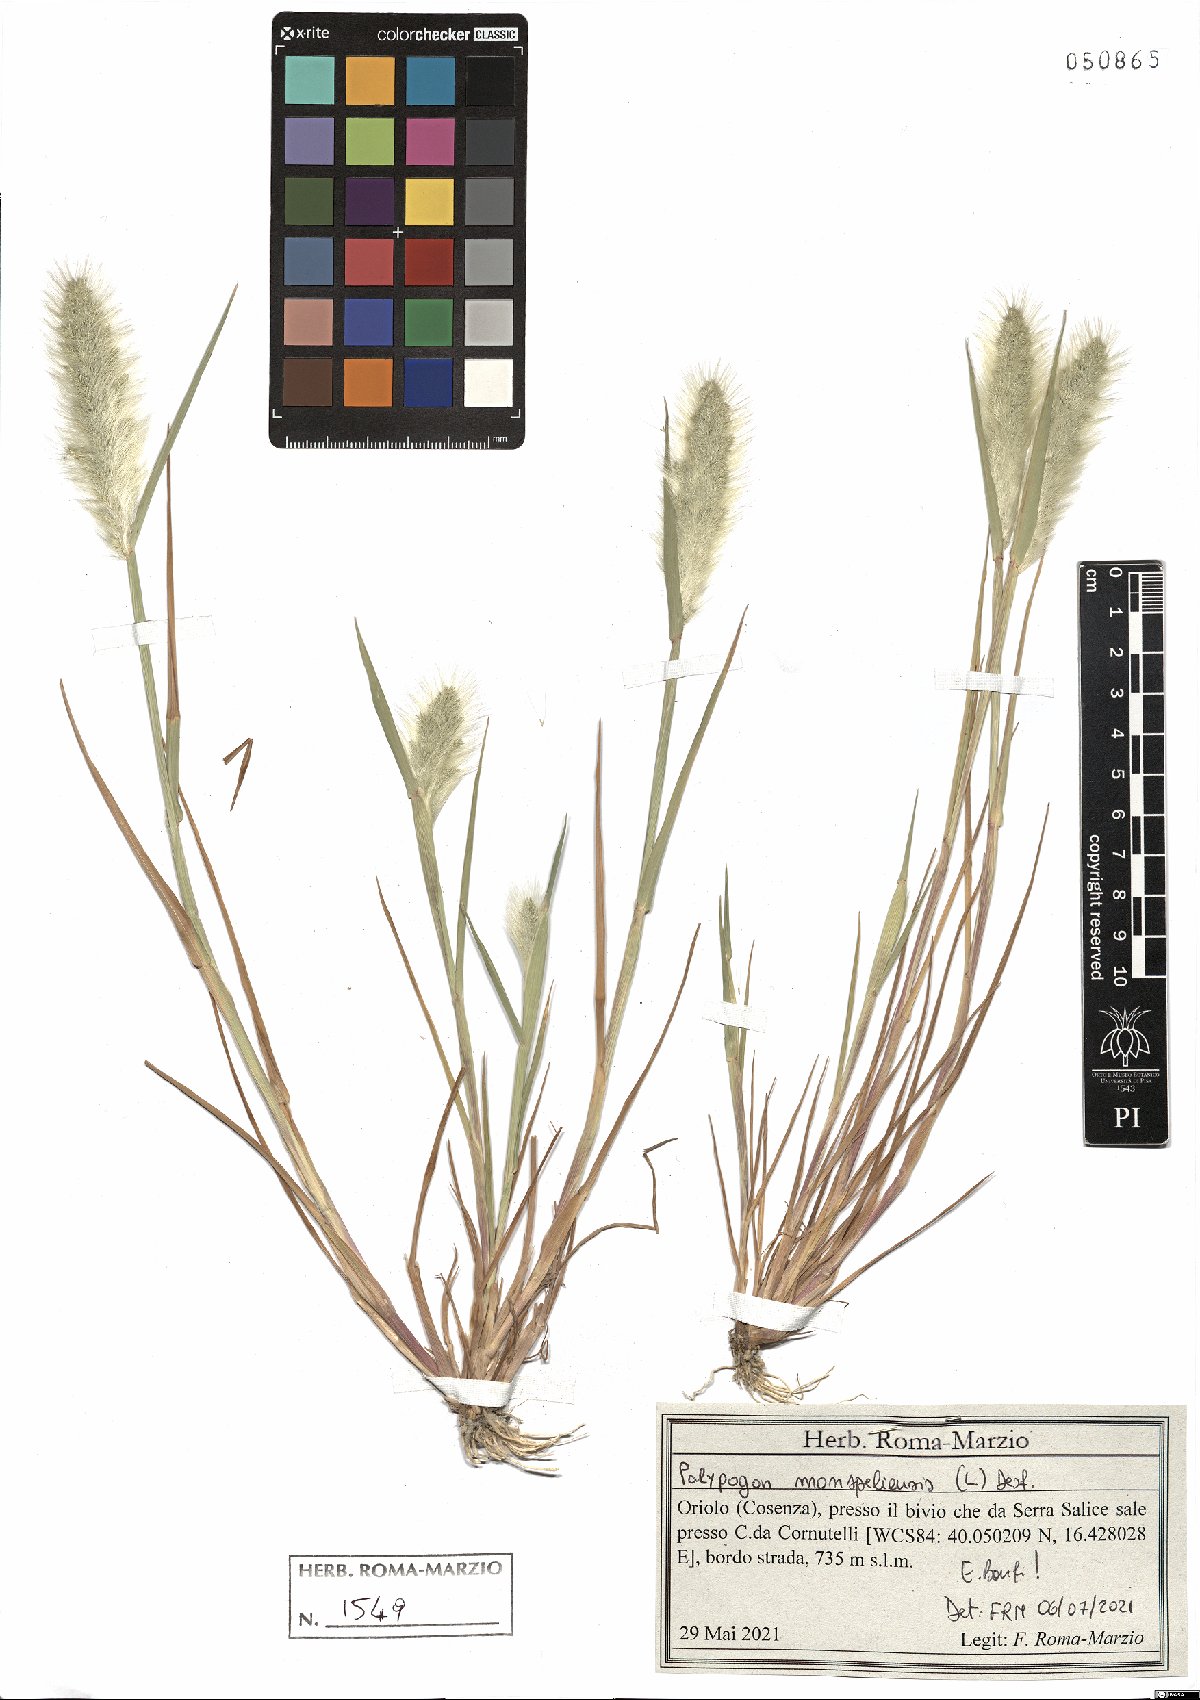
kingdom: Plantae
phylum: Tracheophyta
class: Liliopsida
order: Poales
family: Poaceae
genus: Polypogon
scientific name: Polypogon monspeliensis
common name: Annual rabbitsfoot grass
